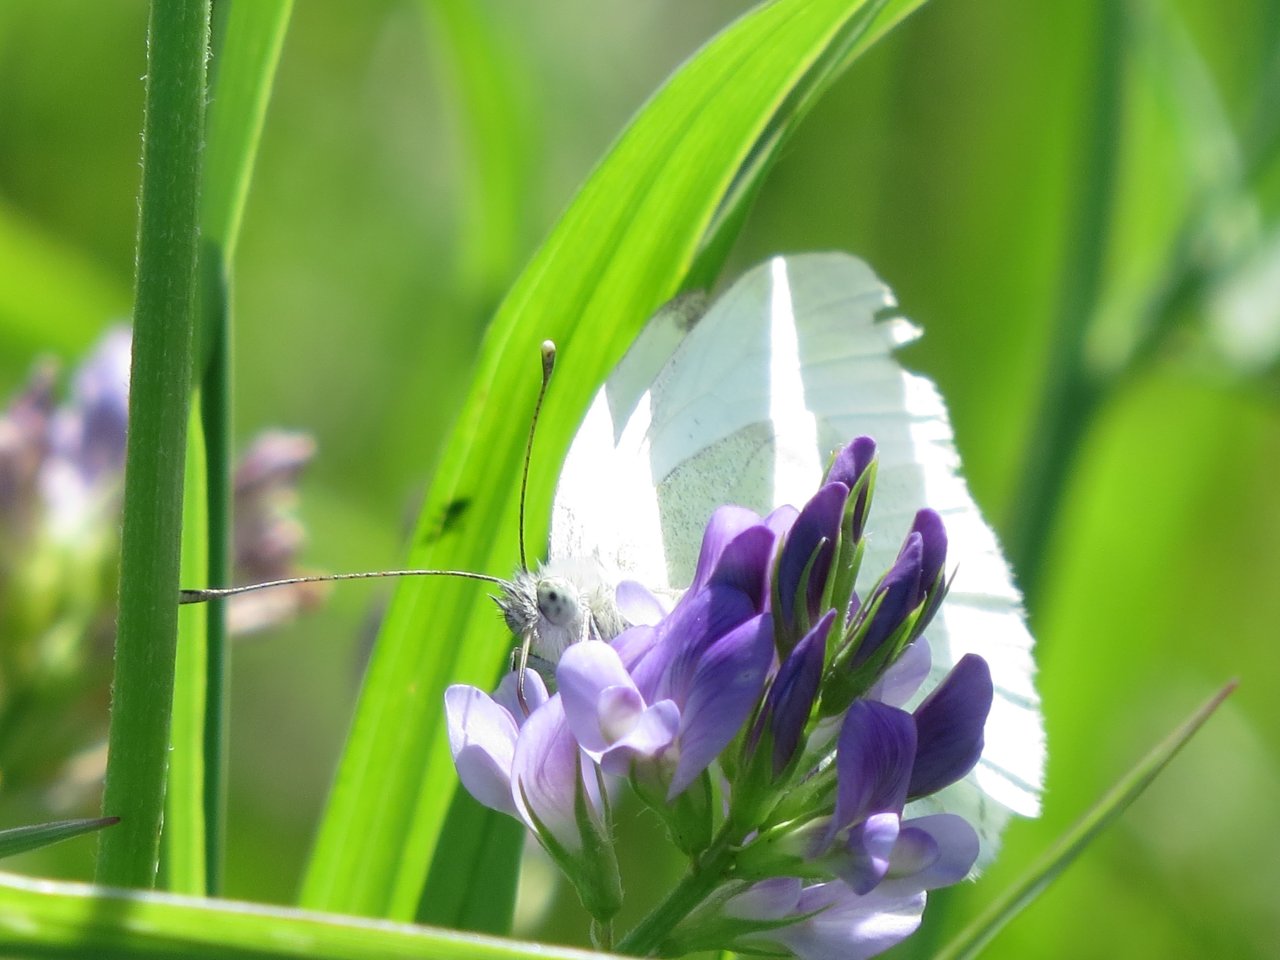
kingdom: Animalia
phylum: Arthropoda
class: Insecta
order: Lepidoptera
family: Pieridae
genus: Pieris
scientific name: Pieris rapae
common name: Cabbage White
